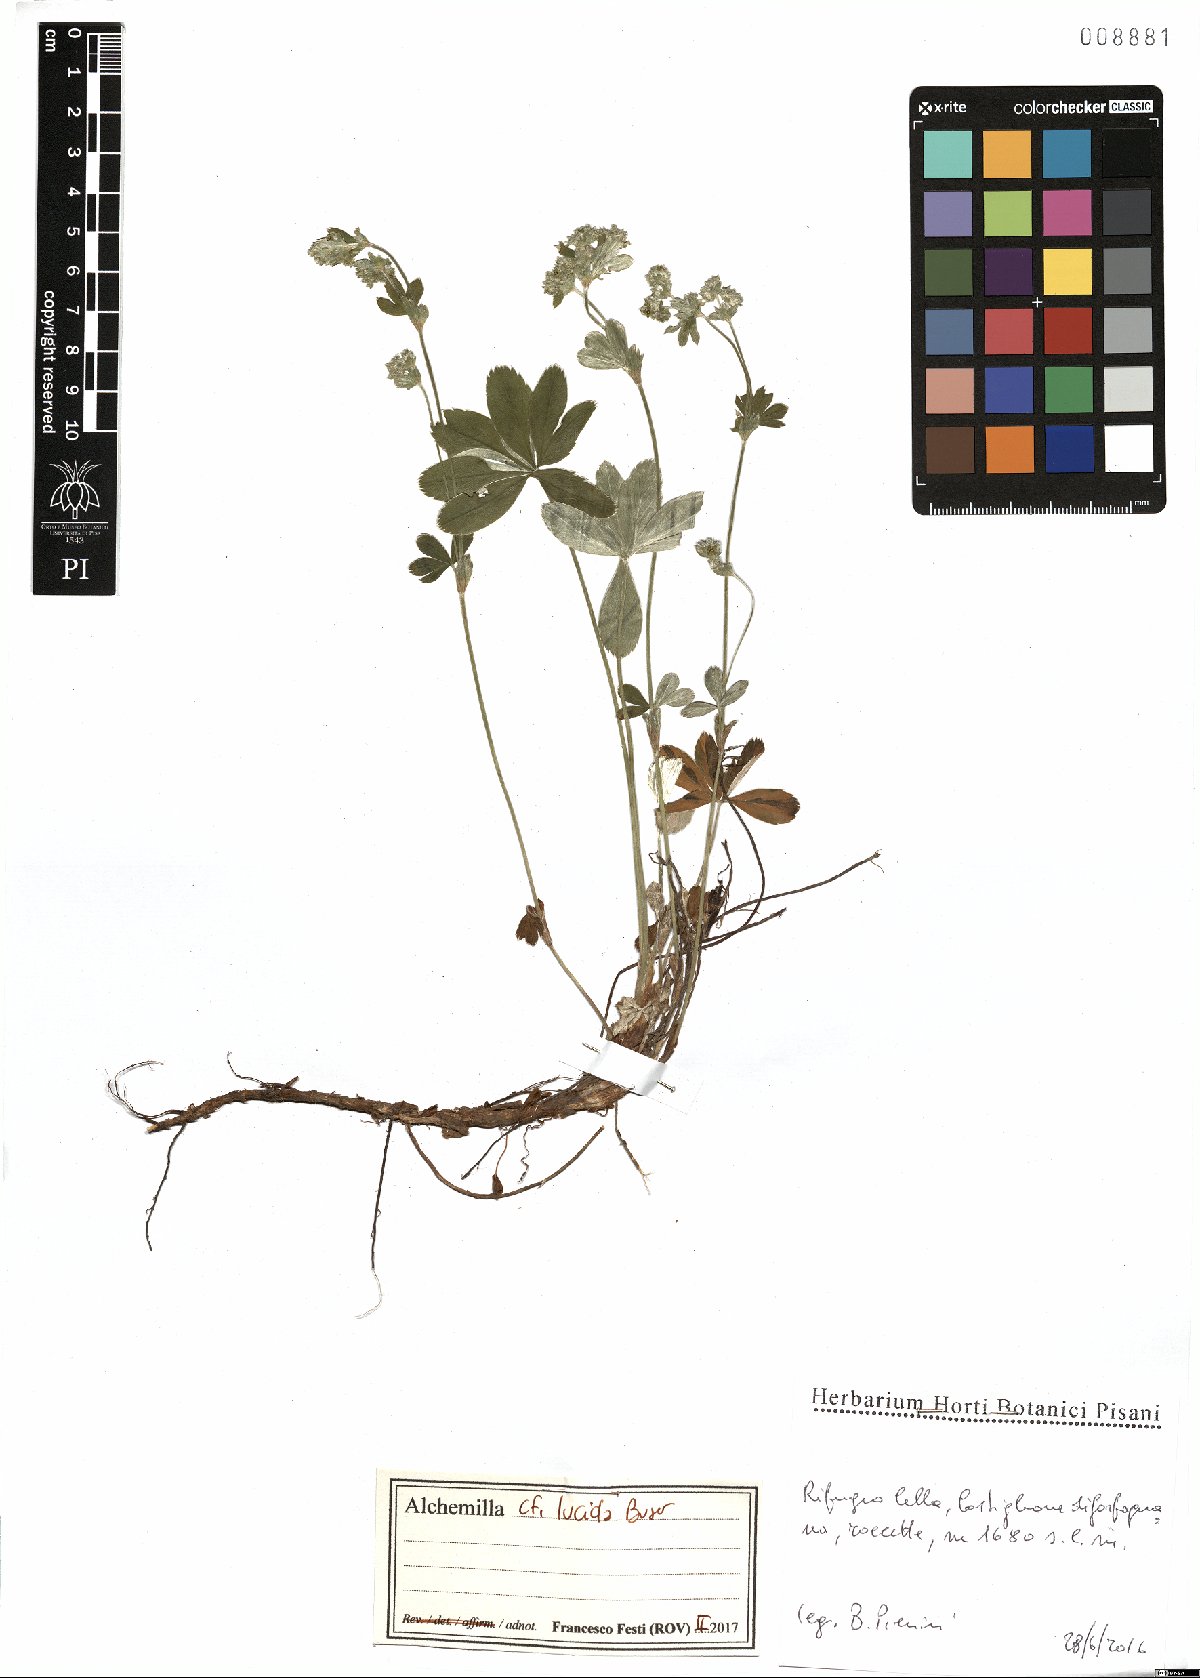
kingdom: Plantae
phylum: Tracheophyta
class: Magnoliopsida
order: Rosales
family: Rosaceae
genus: Alchemilla
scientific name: Alchemilla lucida
